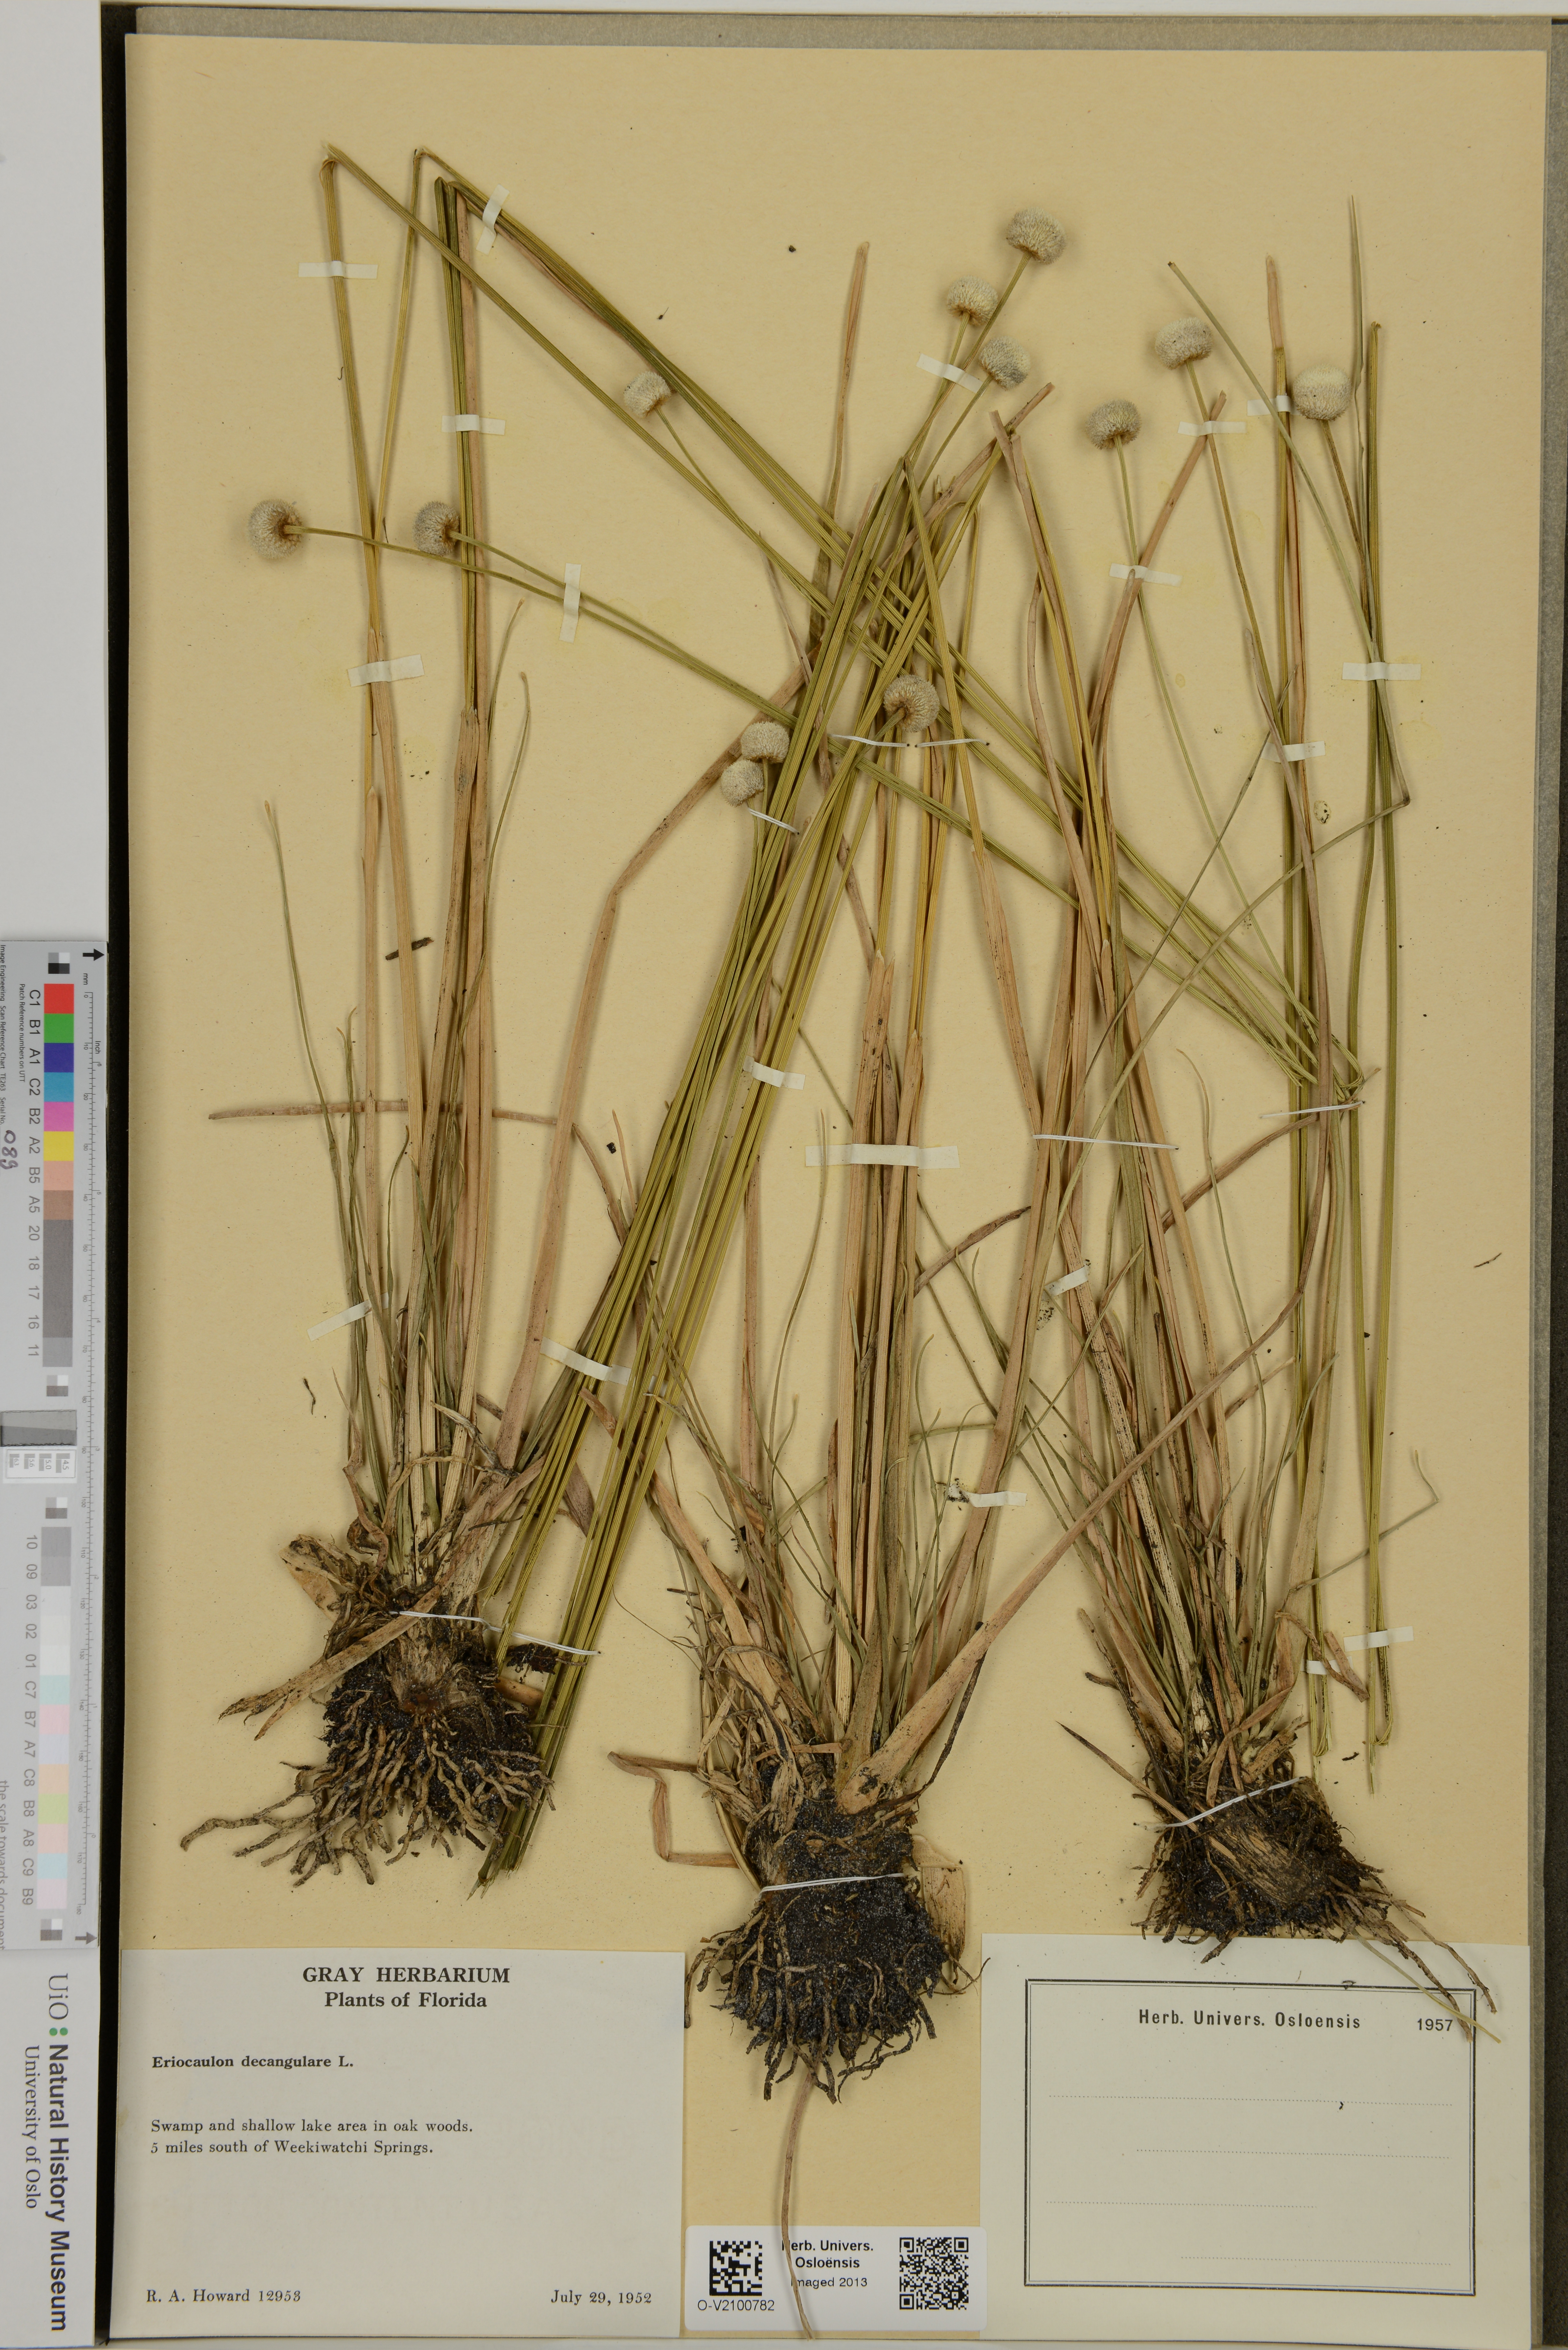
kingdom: Plantae
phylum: Tracheophyta
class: Liliopsida
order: Poales
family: Eriocaulaceae
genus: Eriocaulon
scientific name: Eriocaulon decangulare
